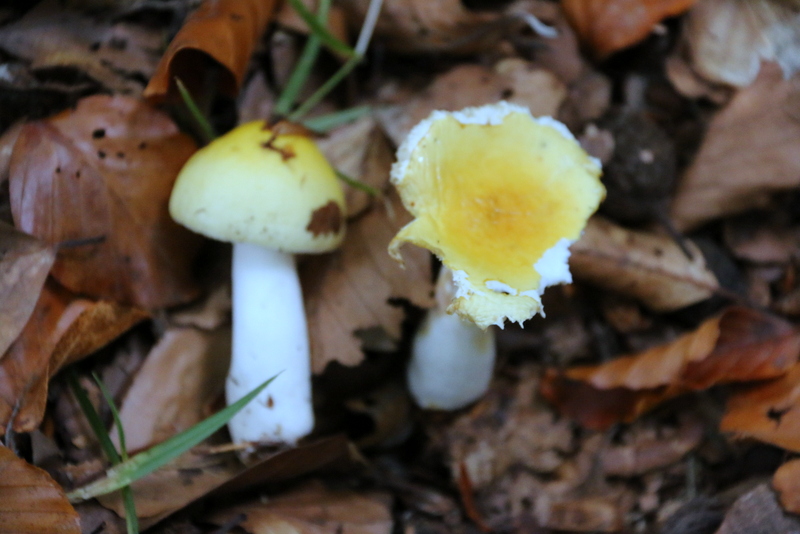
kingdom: Fungi
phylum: Basidiomycota
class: Agaricomycetes
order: Russulales
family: Russulaceae
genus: Russula
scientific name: Russula solaris
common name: sol-skørhat
